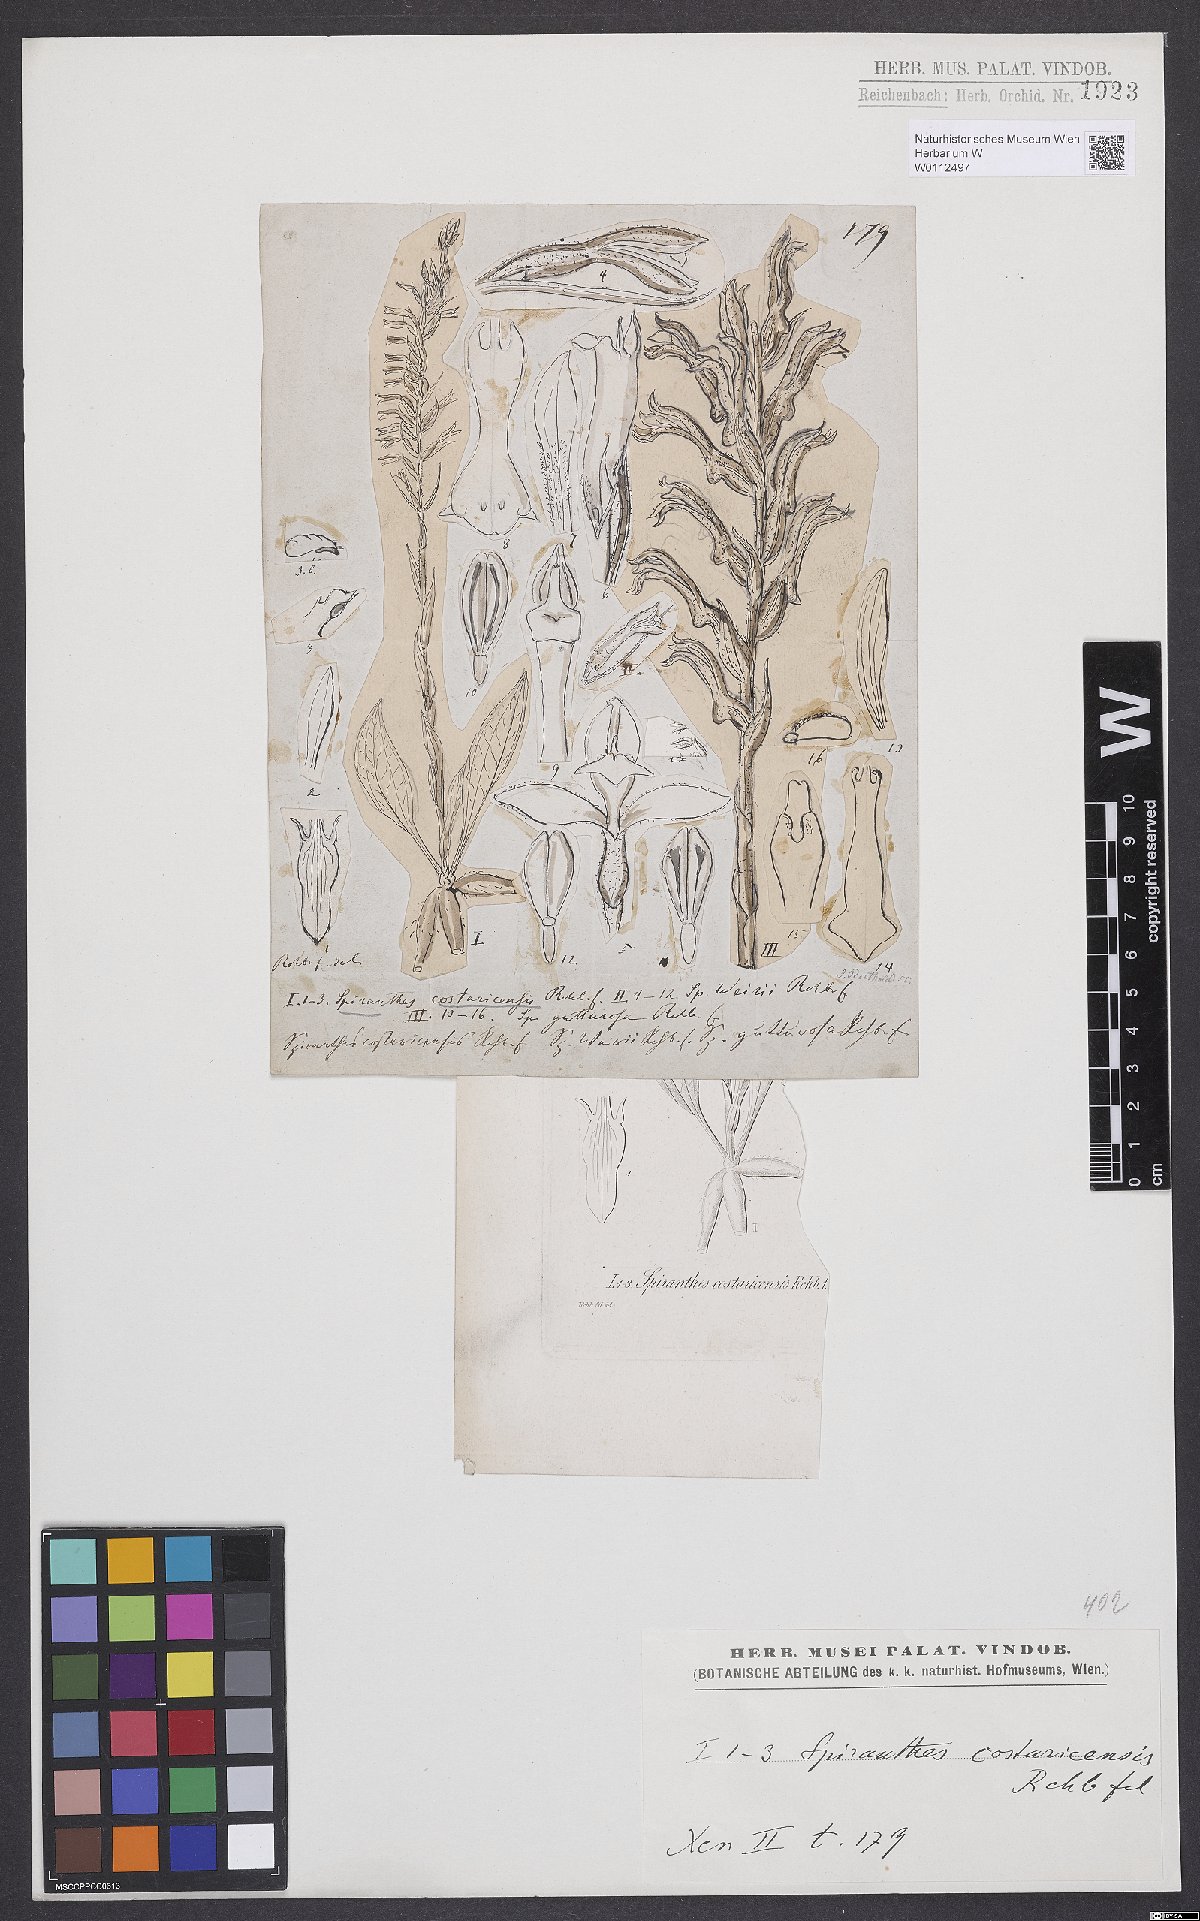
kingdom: Plantae
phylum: Tracheophyta
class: Liliopsida
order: Asparagales
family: Orchidaceae
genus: Beloglottis
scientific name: Beloglottis costaricensis
